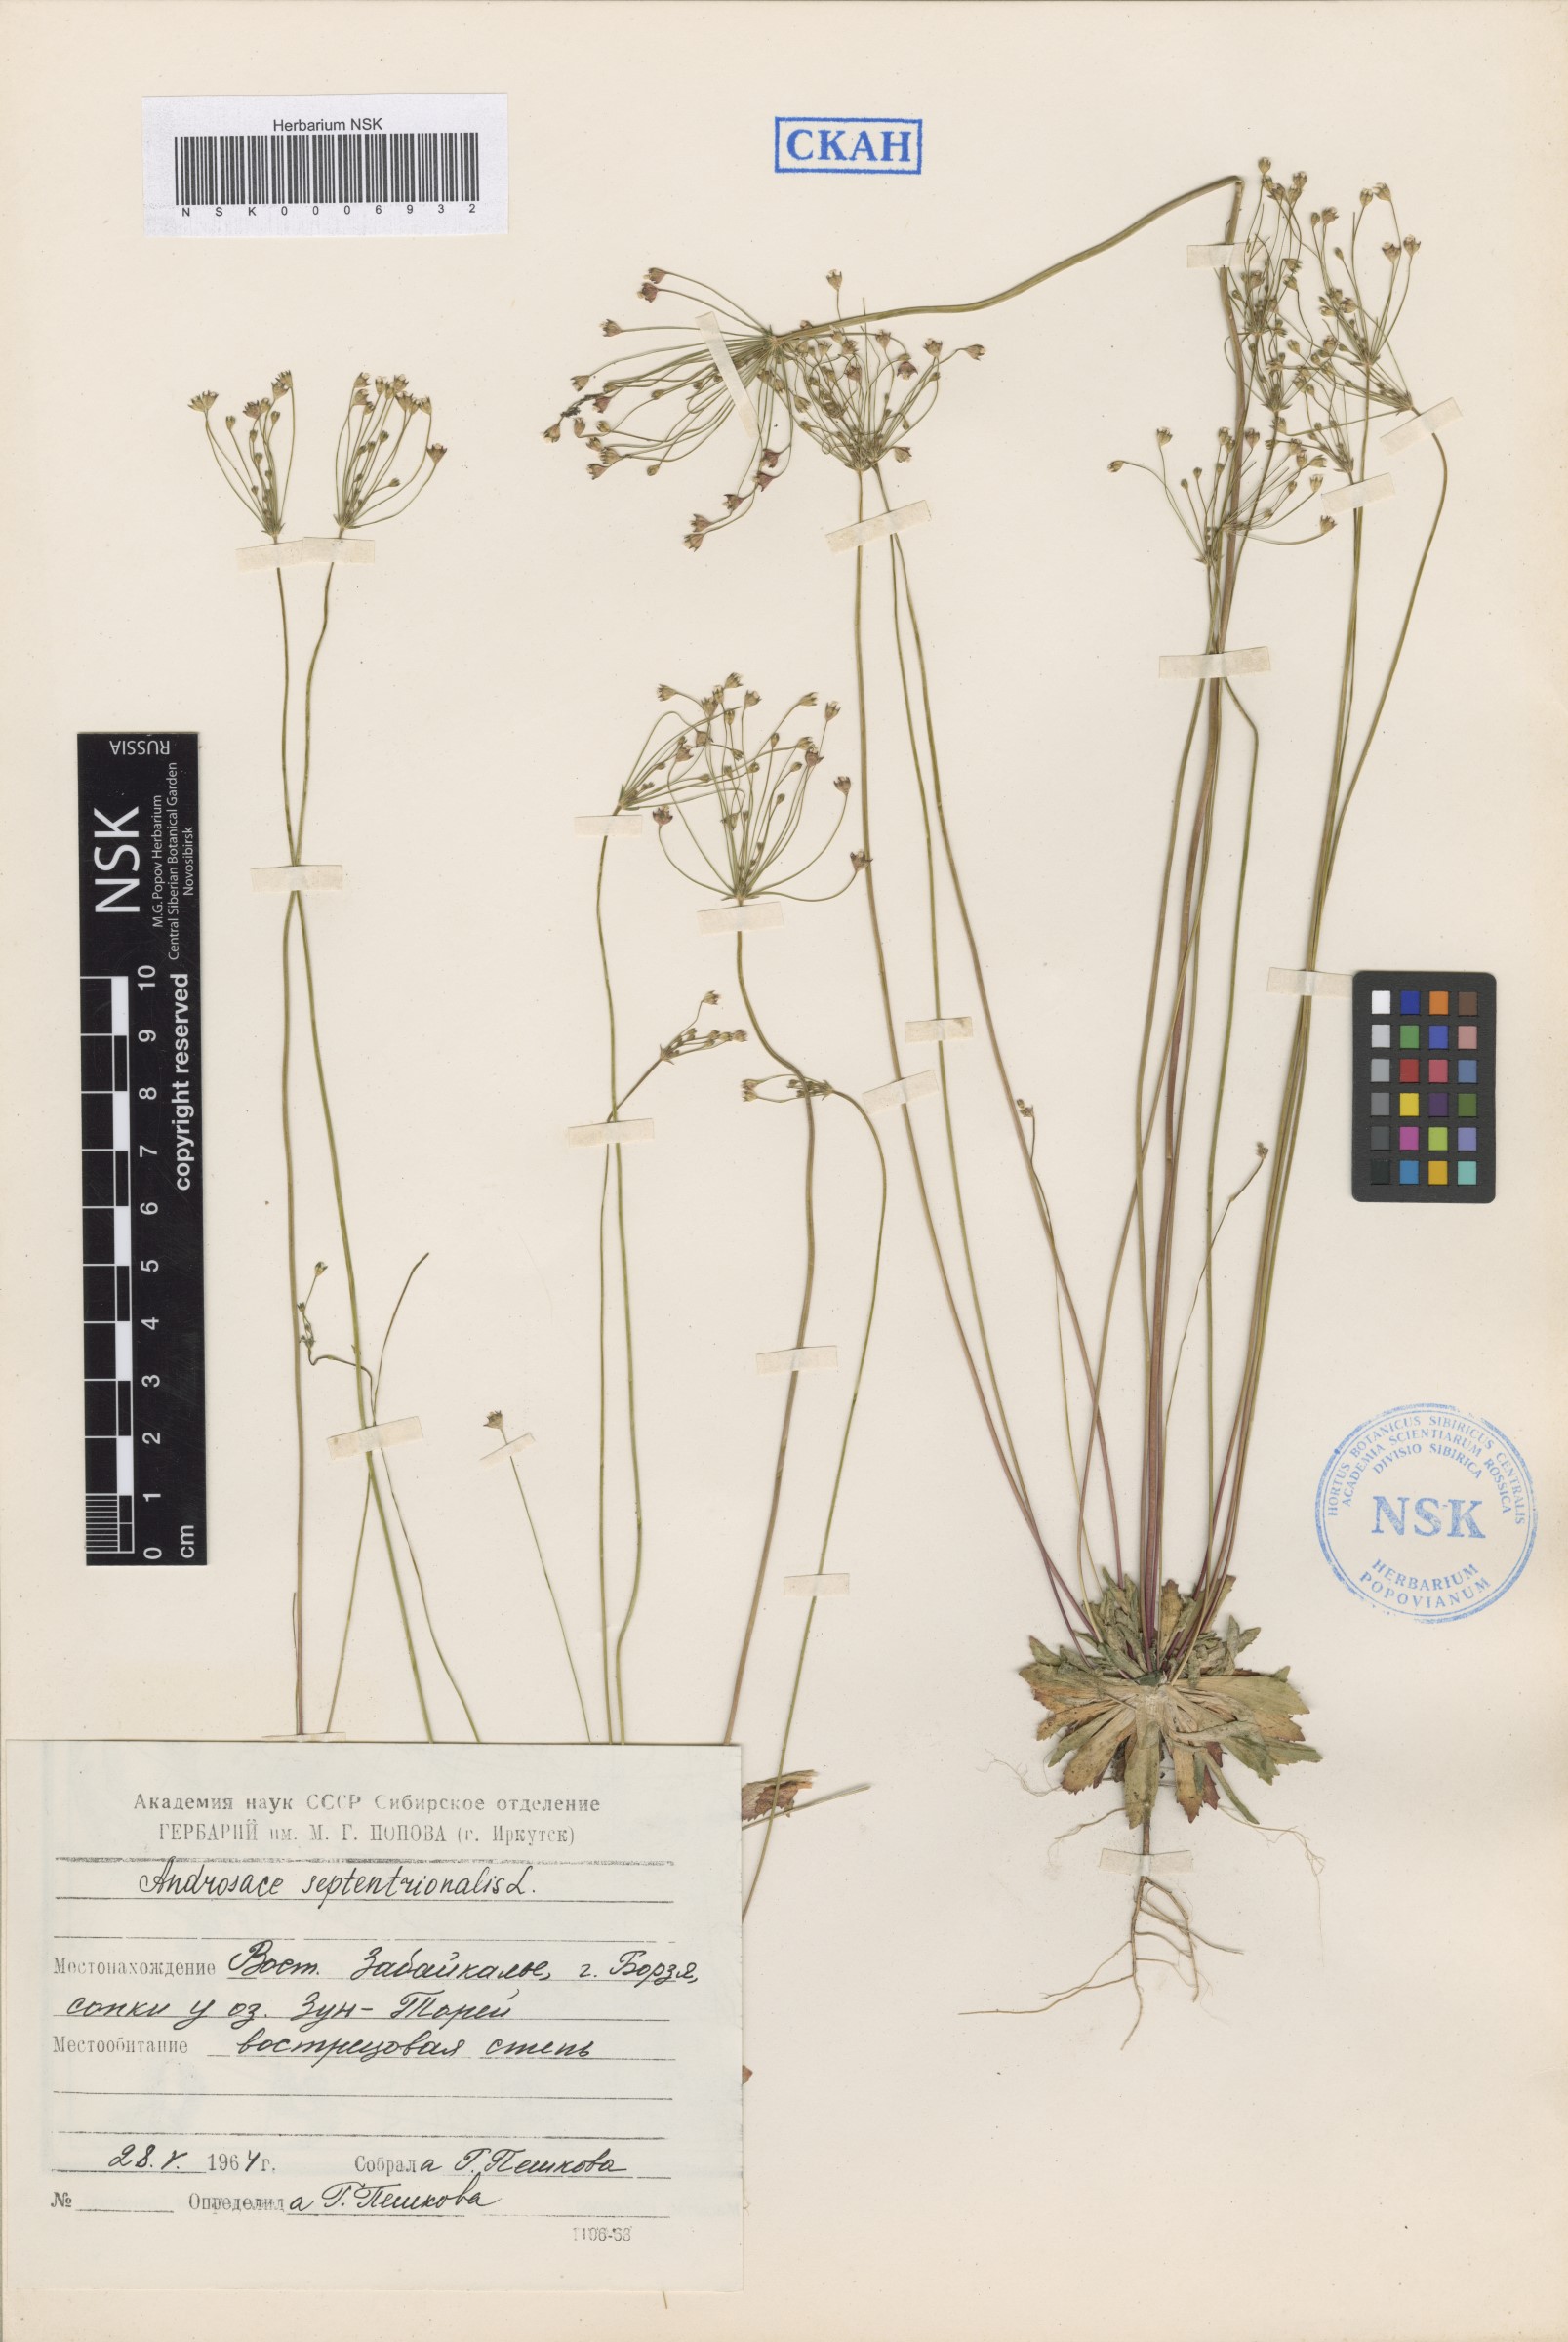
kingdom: Plantae
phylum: Tracheophyta
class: Magnoliopsida
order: Ericales
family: Primulaceae
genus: Androsace
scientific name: Androsace septentrionalis
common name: Hairy northern fairy-candelabra
